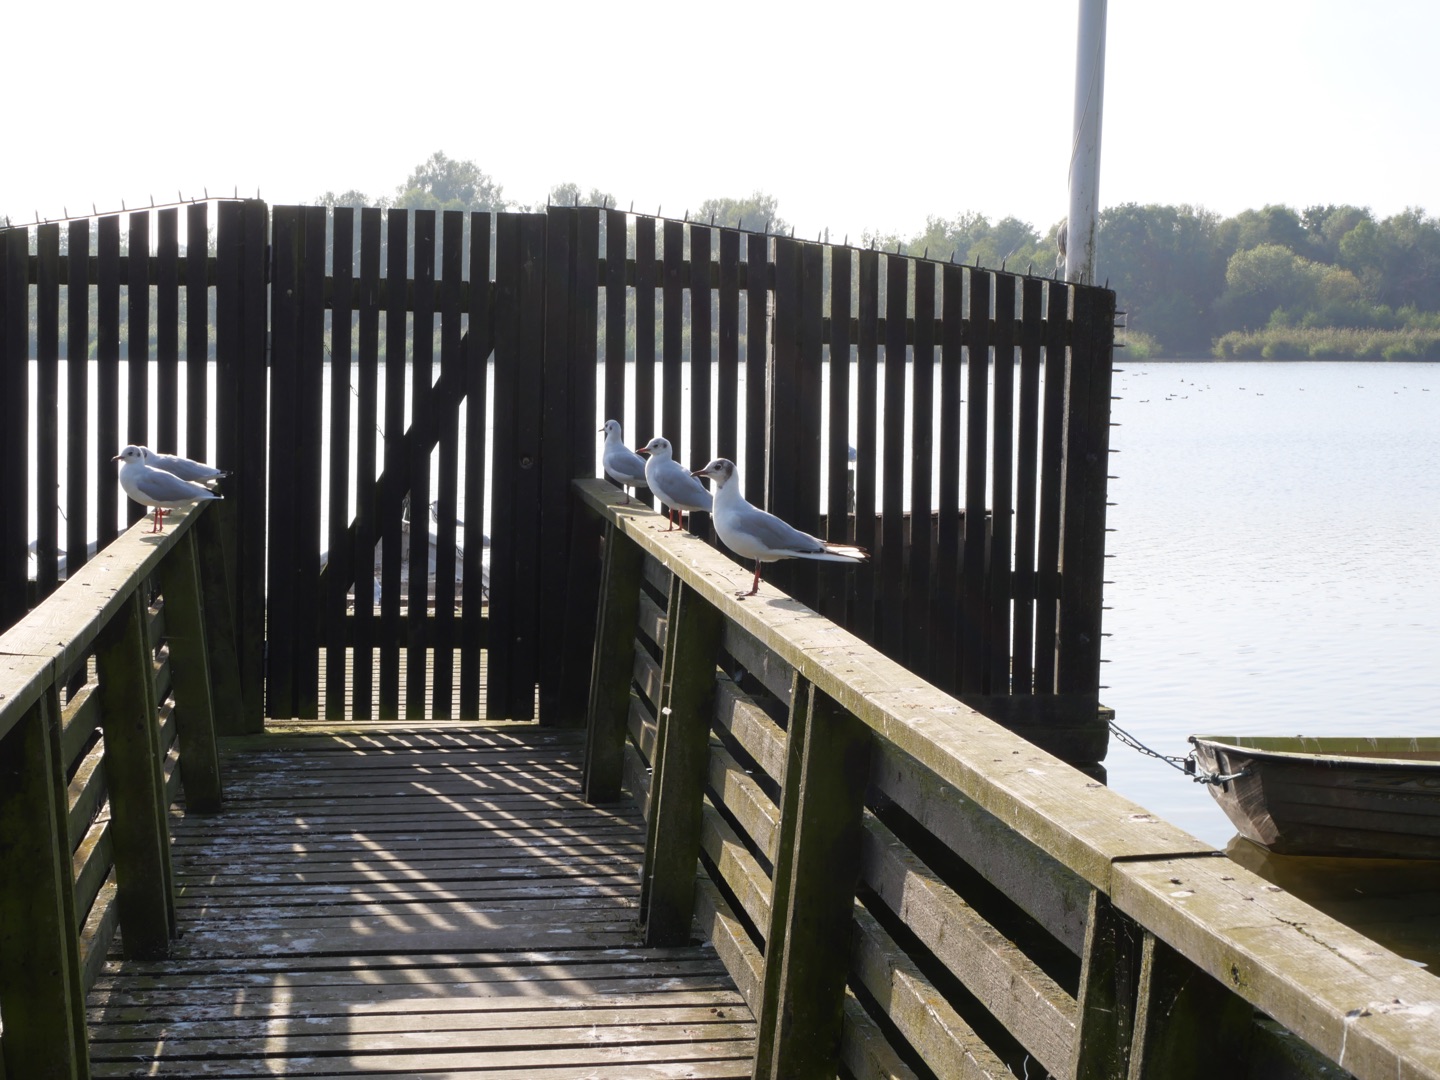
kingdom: Animalia
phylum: Chordata
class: Aves
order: Charadriiformes
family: Laridae
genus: Chroicocephalus
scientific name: Chroicocephalus ridibundus
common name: Hættemåge
